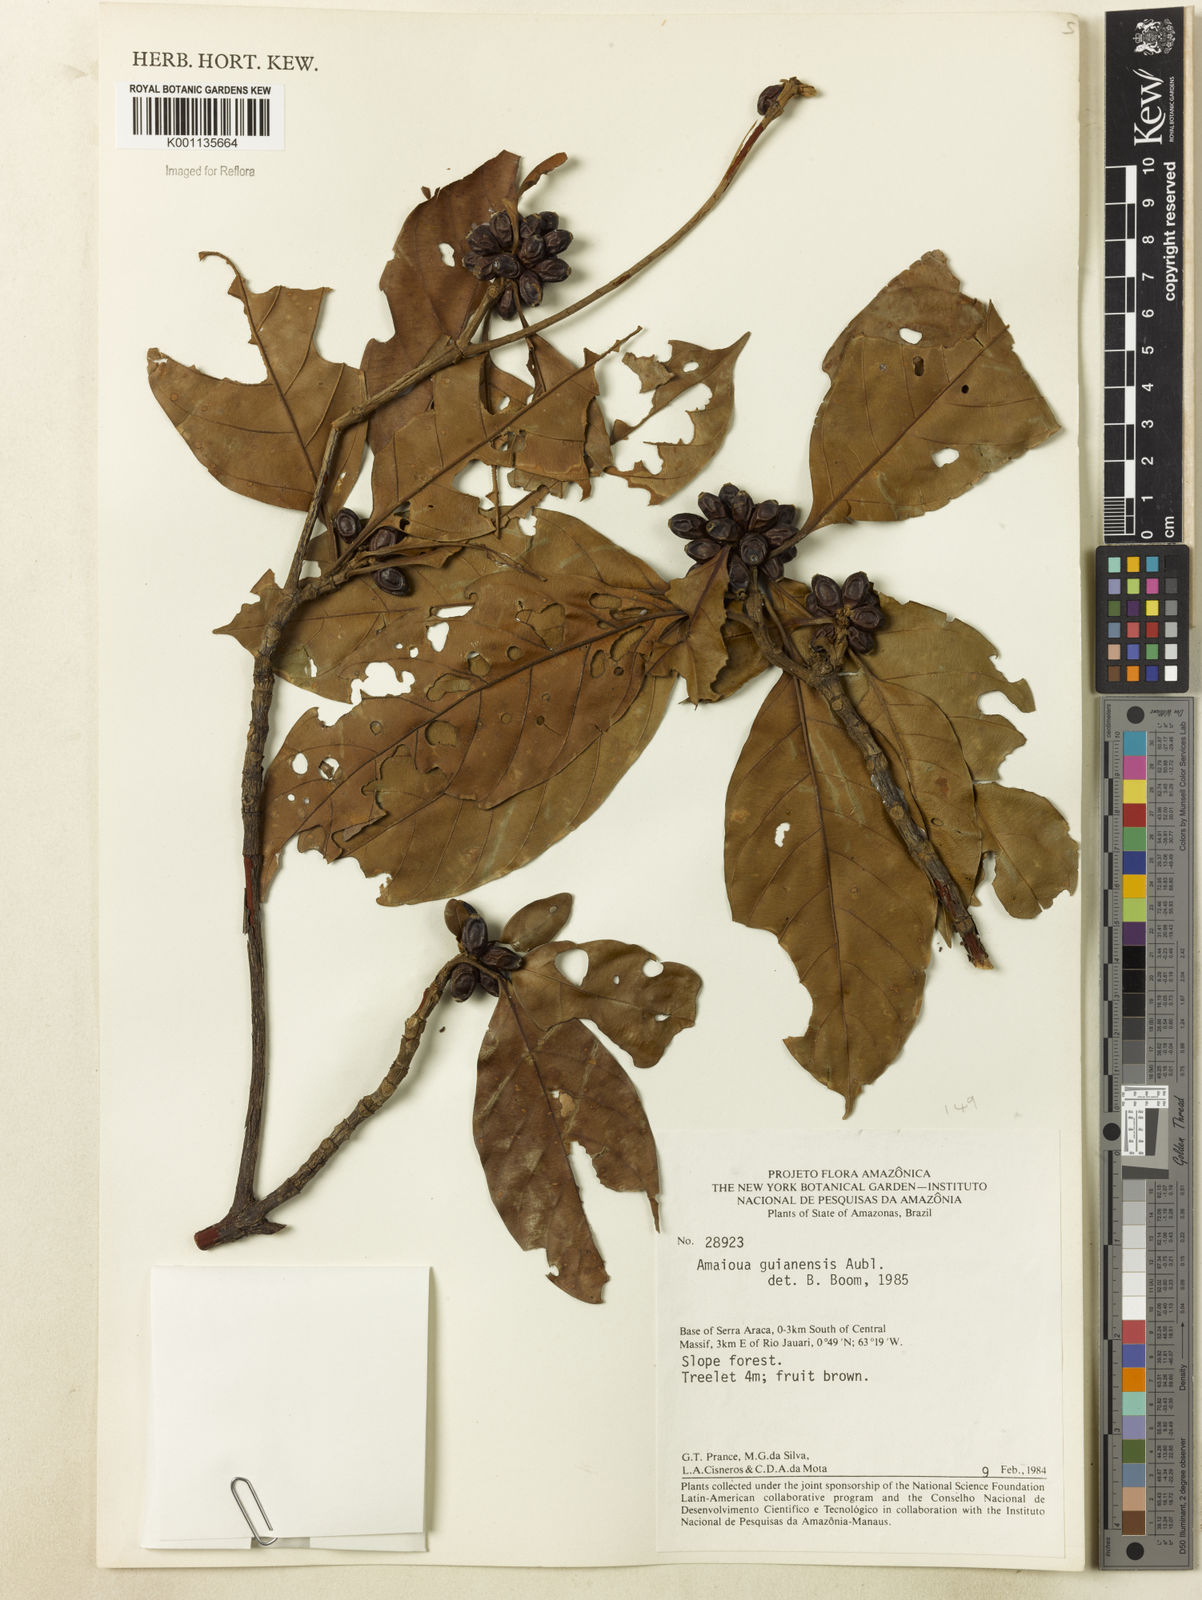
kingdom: Plantae
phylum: Tracheophyta
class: Magnoliopsida
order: Gentianales
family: Rubiaceae
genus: Amaioua
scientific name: Amaioua guianensis
